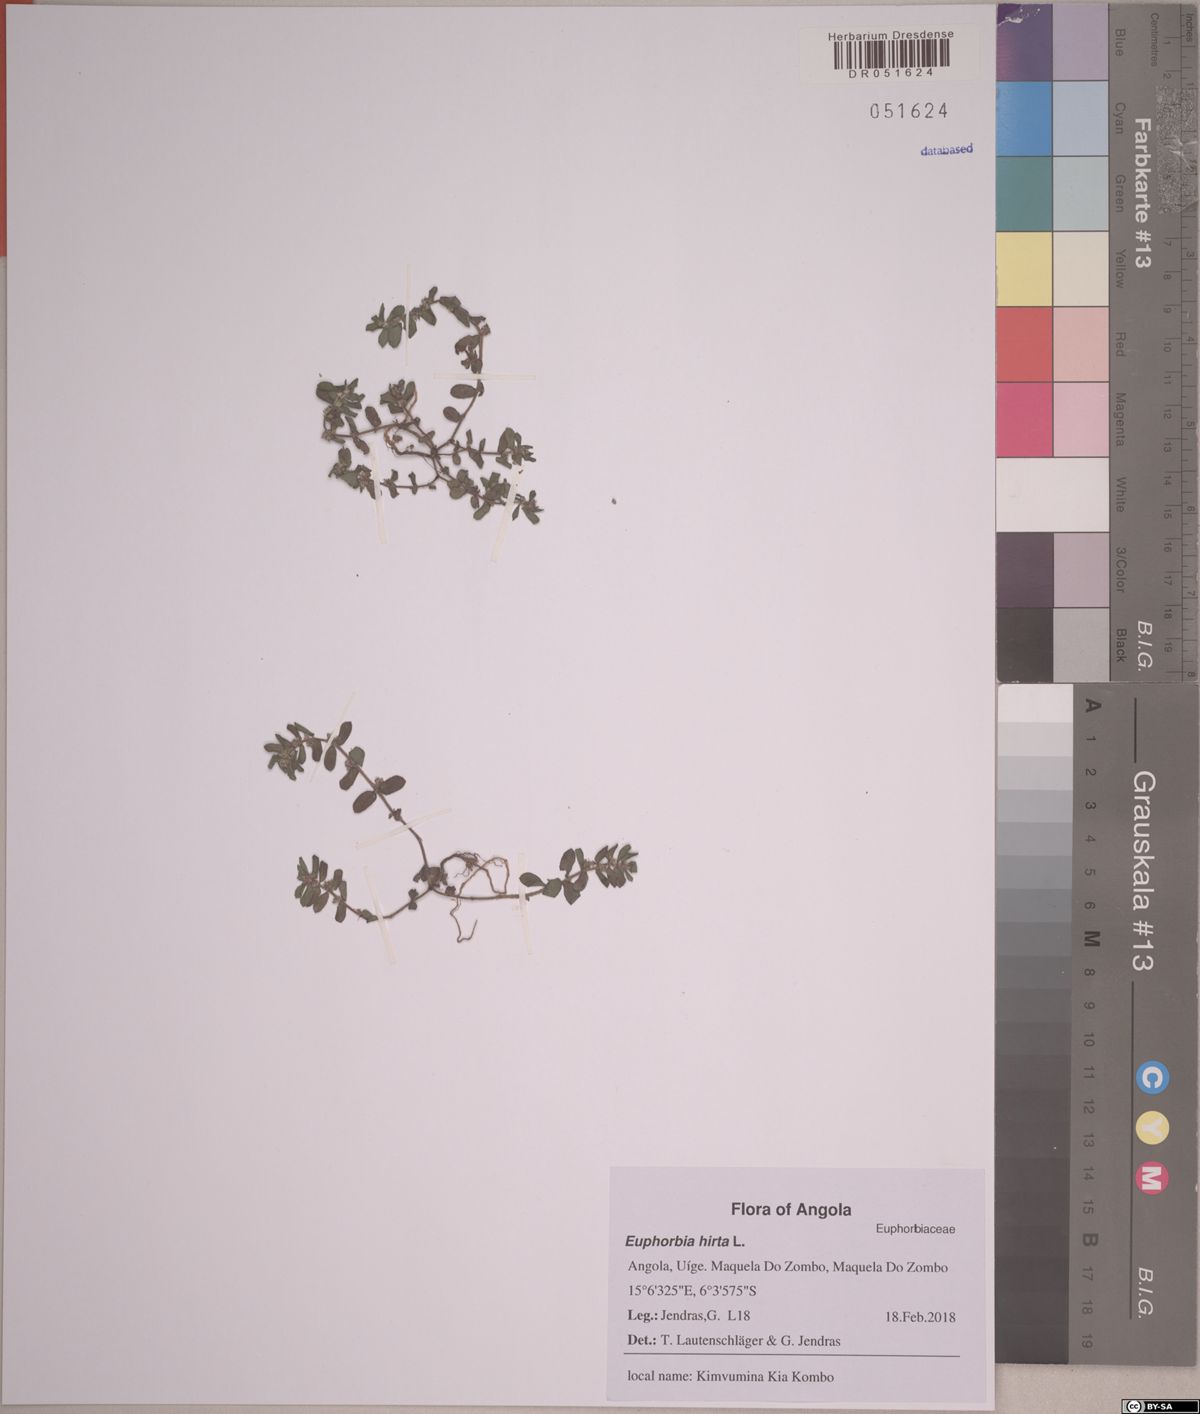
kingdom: Plantae
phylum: Tracheophyta
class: Magnoliopsida
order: Malpighiales
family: Euphorbiaceae
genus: Euphorbia
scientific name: Euphorbia thymifolia
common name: Gulf sandmat
